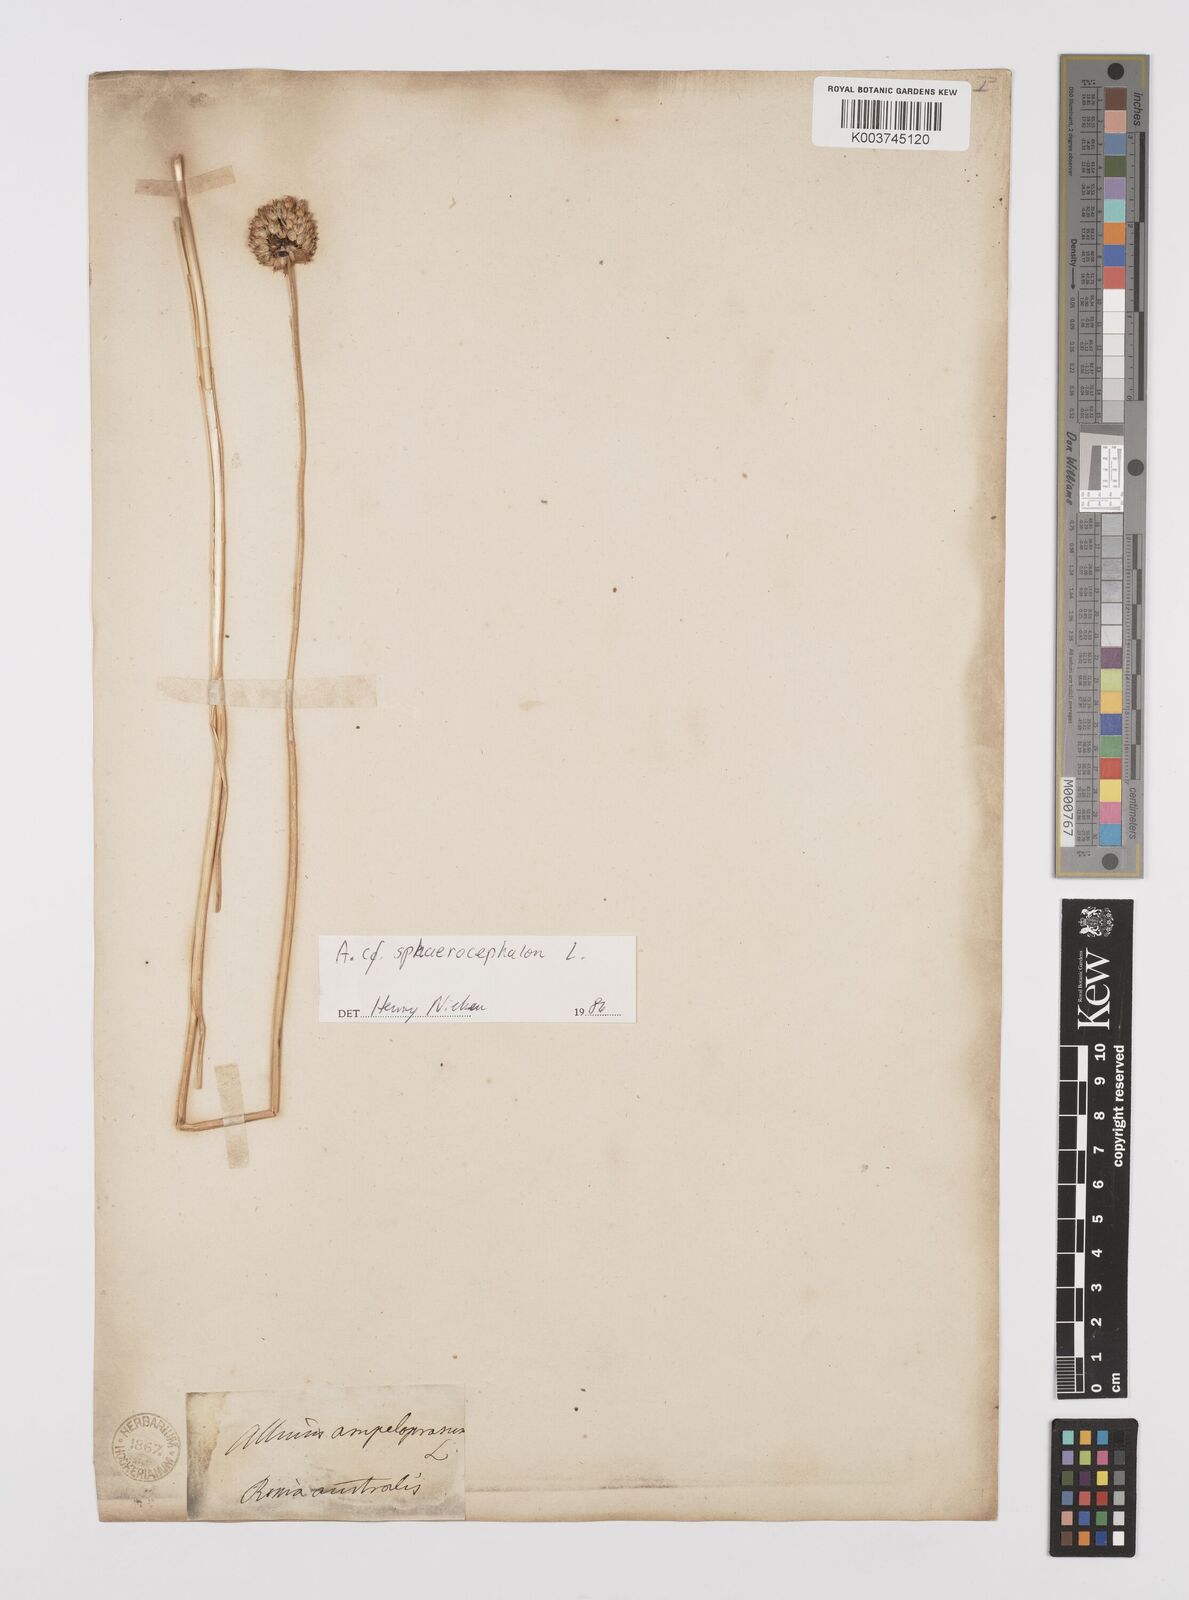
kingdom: Plantae
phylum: Tracheophyta
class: Liliopsida
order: Asparagales
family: Amaryllidaceae
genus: Allium
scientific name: Allium sphaerocephalon
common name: Round-headed leek
